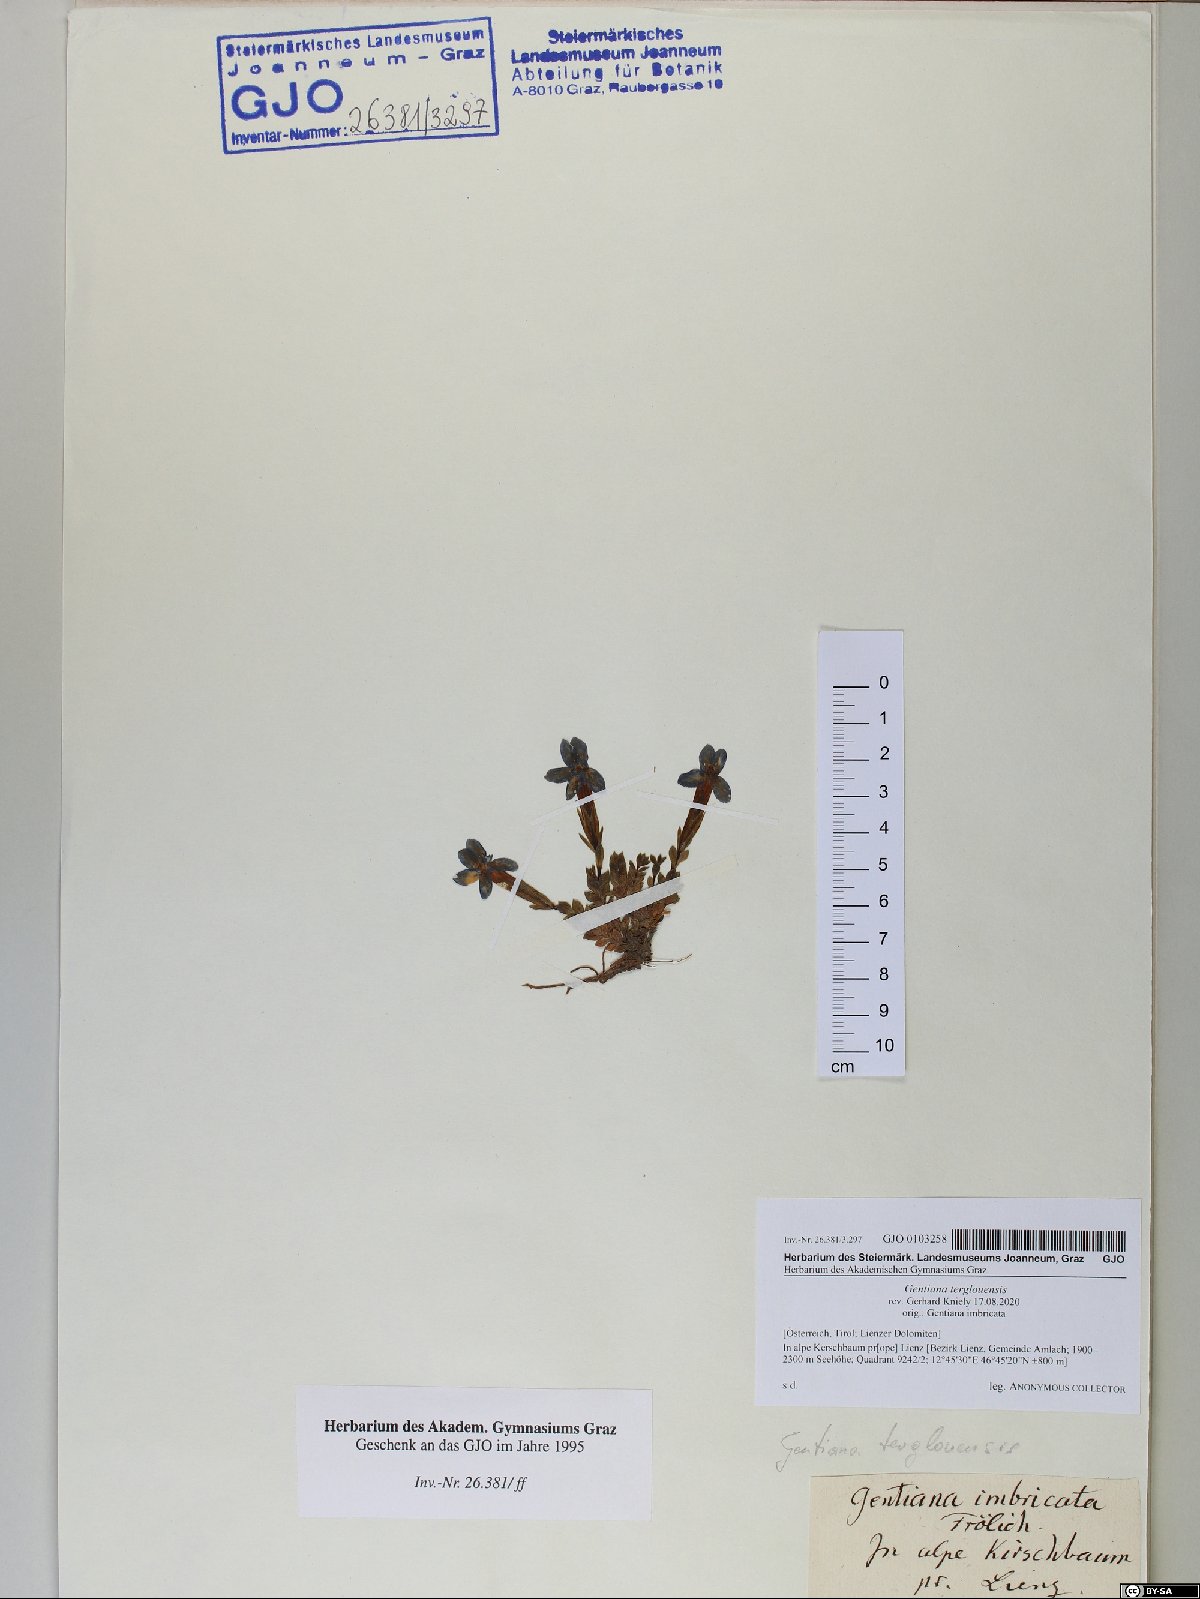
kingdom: Plantae
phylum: Tracheophyta
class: Magnoliopsida
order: Gentianales
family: Gentianaceae
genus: Gentiana
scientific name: Gentiana terglouensis
